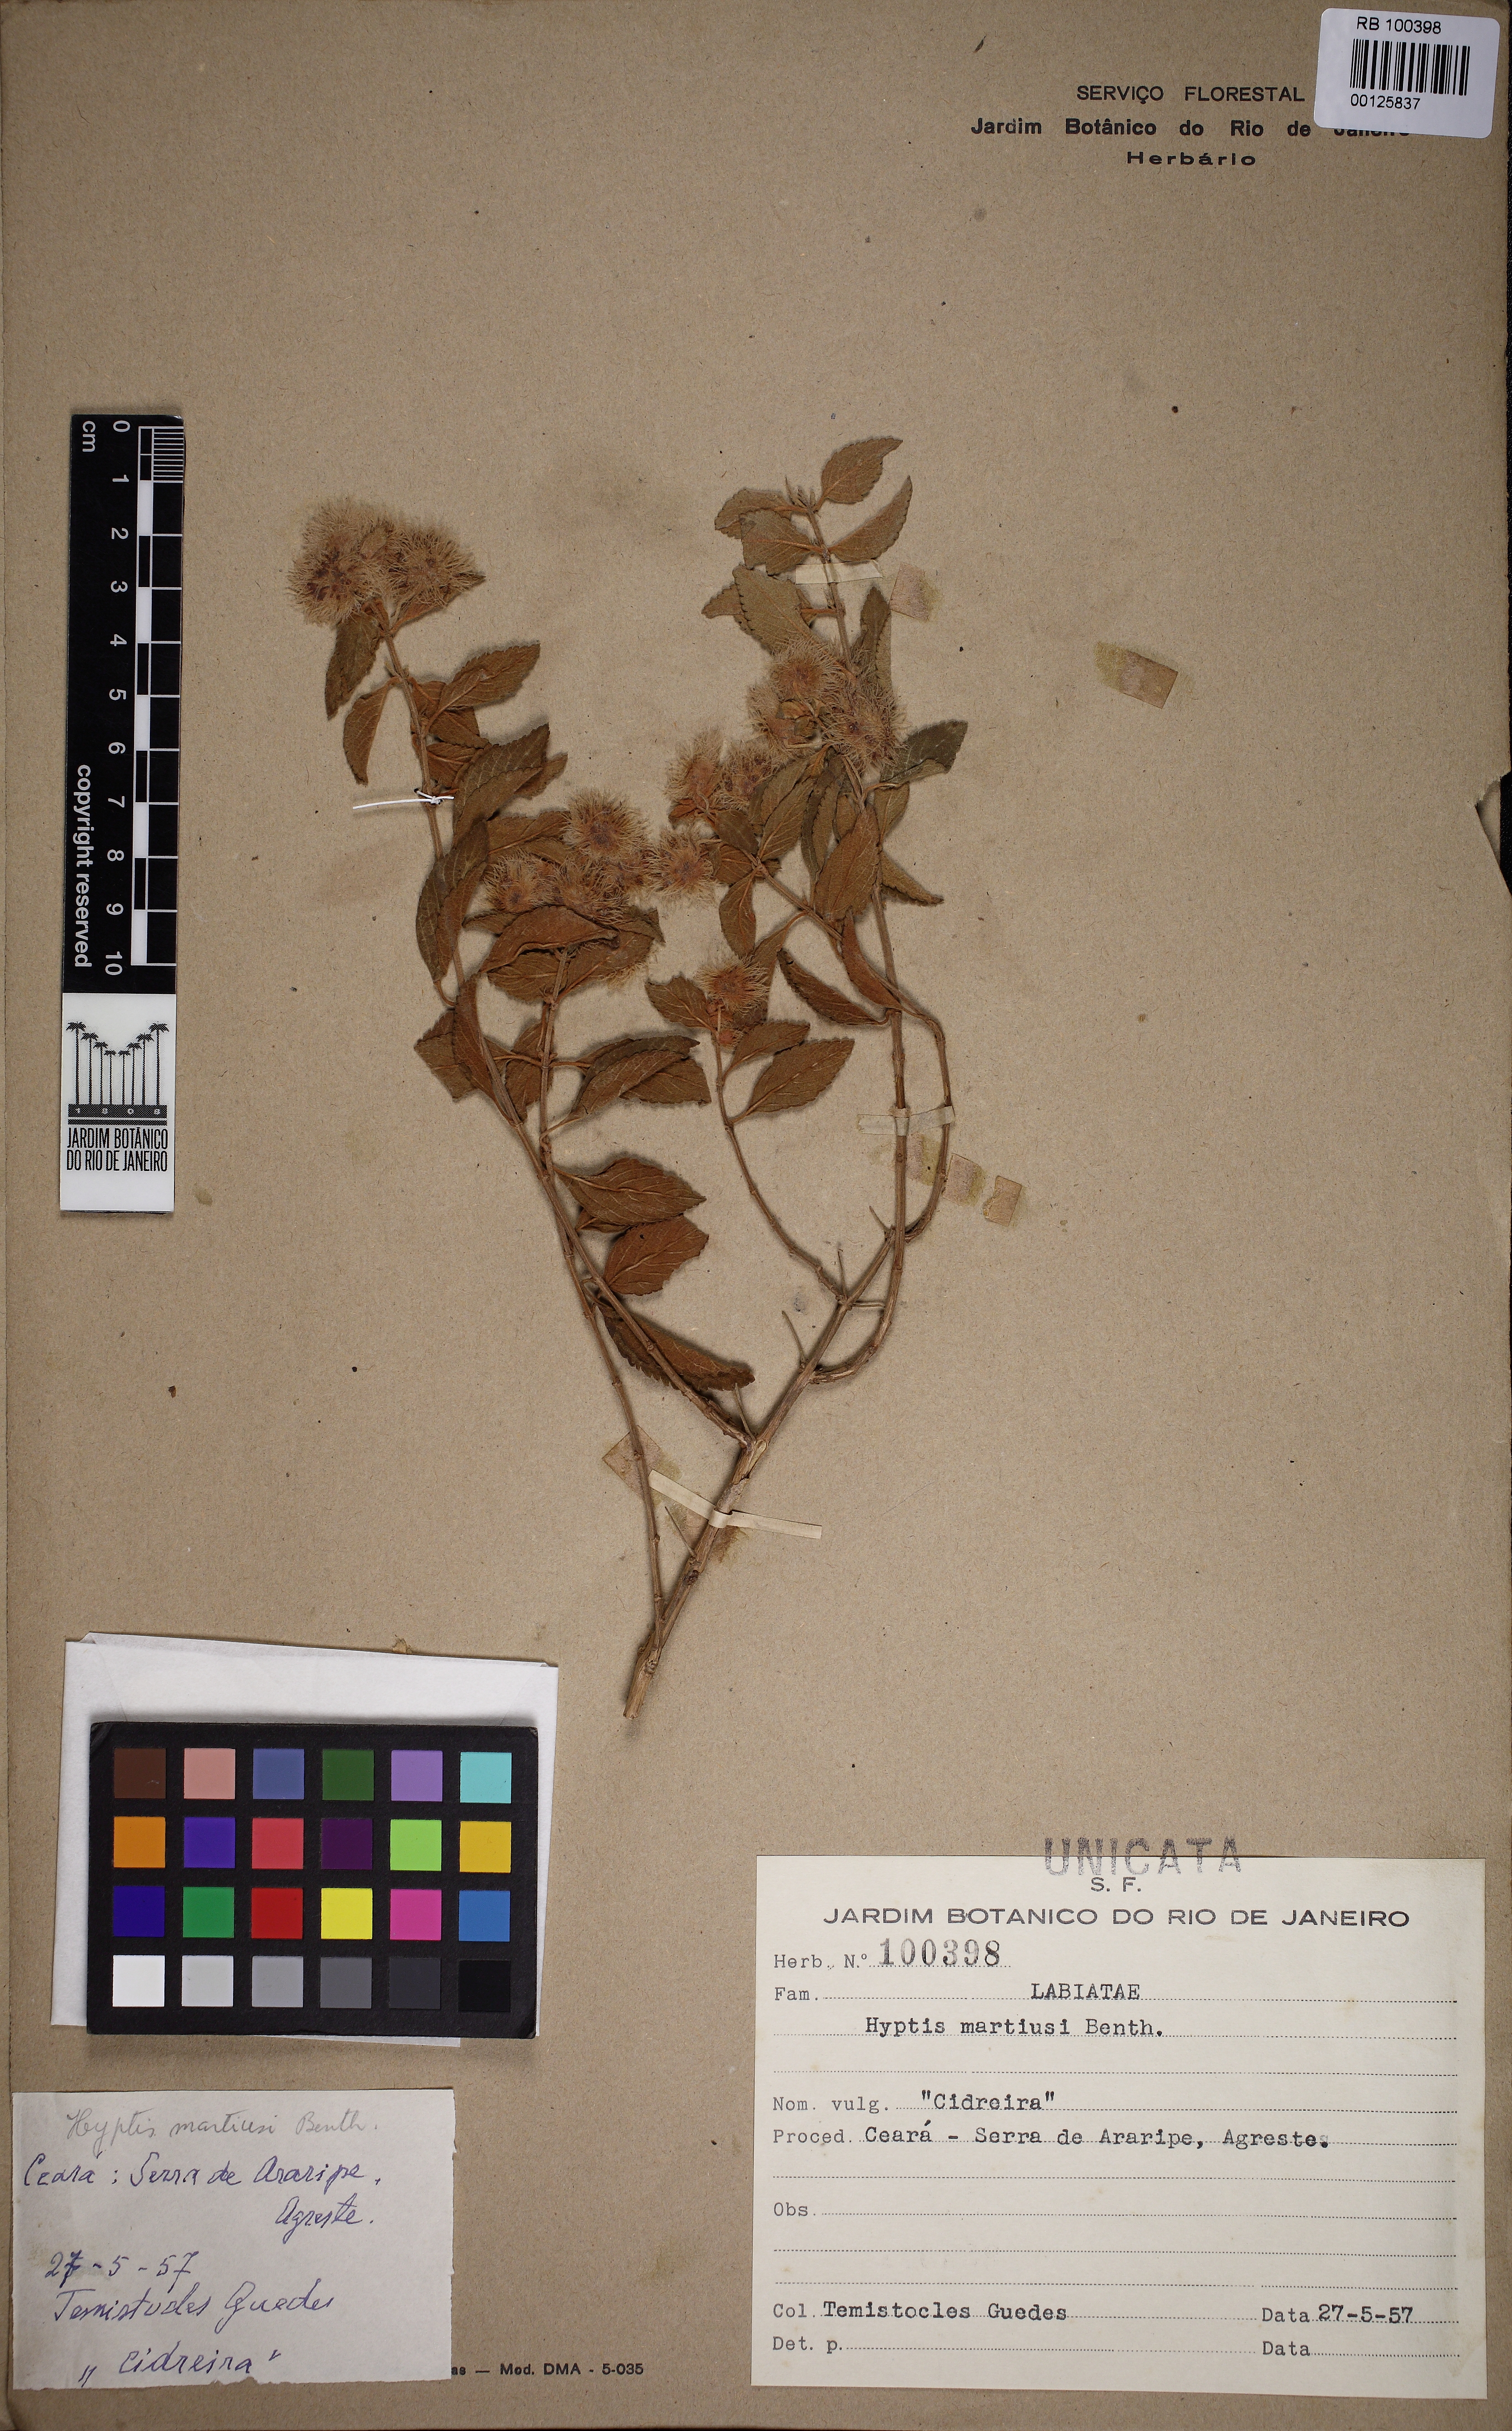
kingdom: Plantae
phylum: Tracheophyta
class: Magnoliopsida
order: Lamiales
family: Lamiaceae
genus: Medusantha
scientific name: Medusantha martiusii
